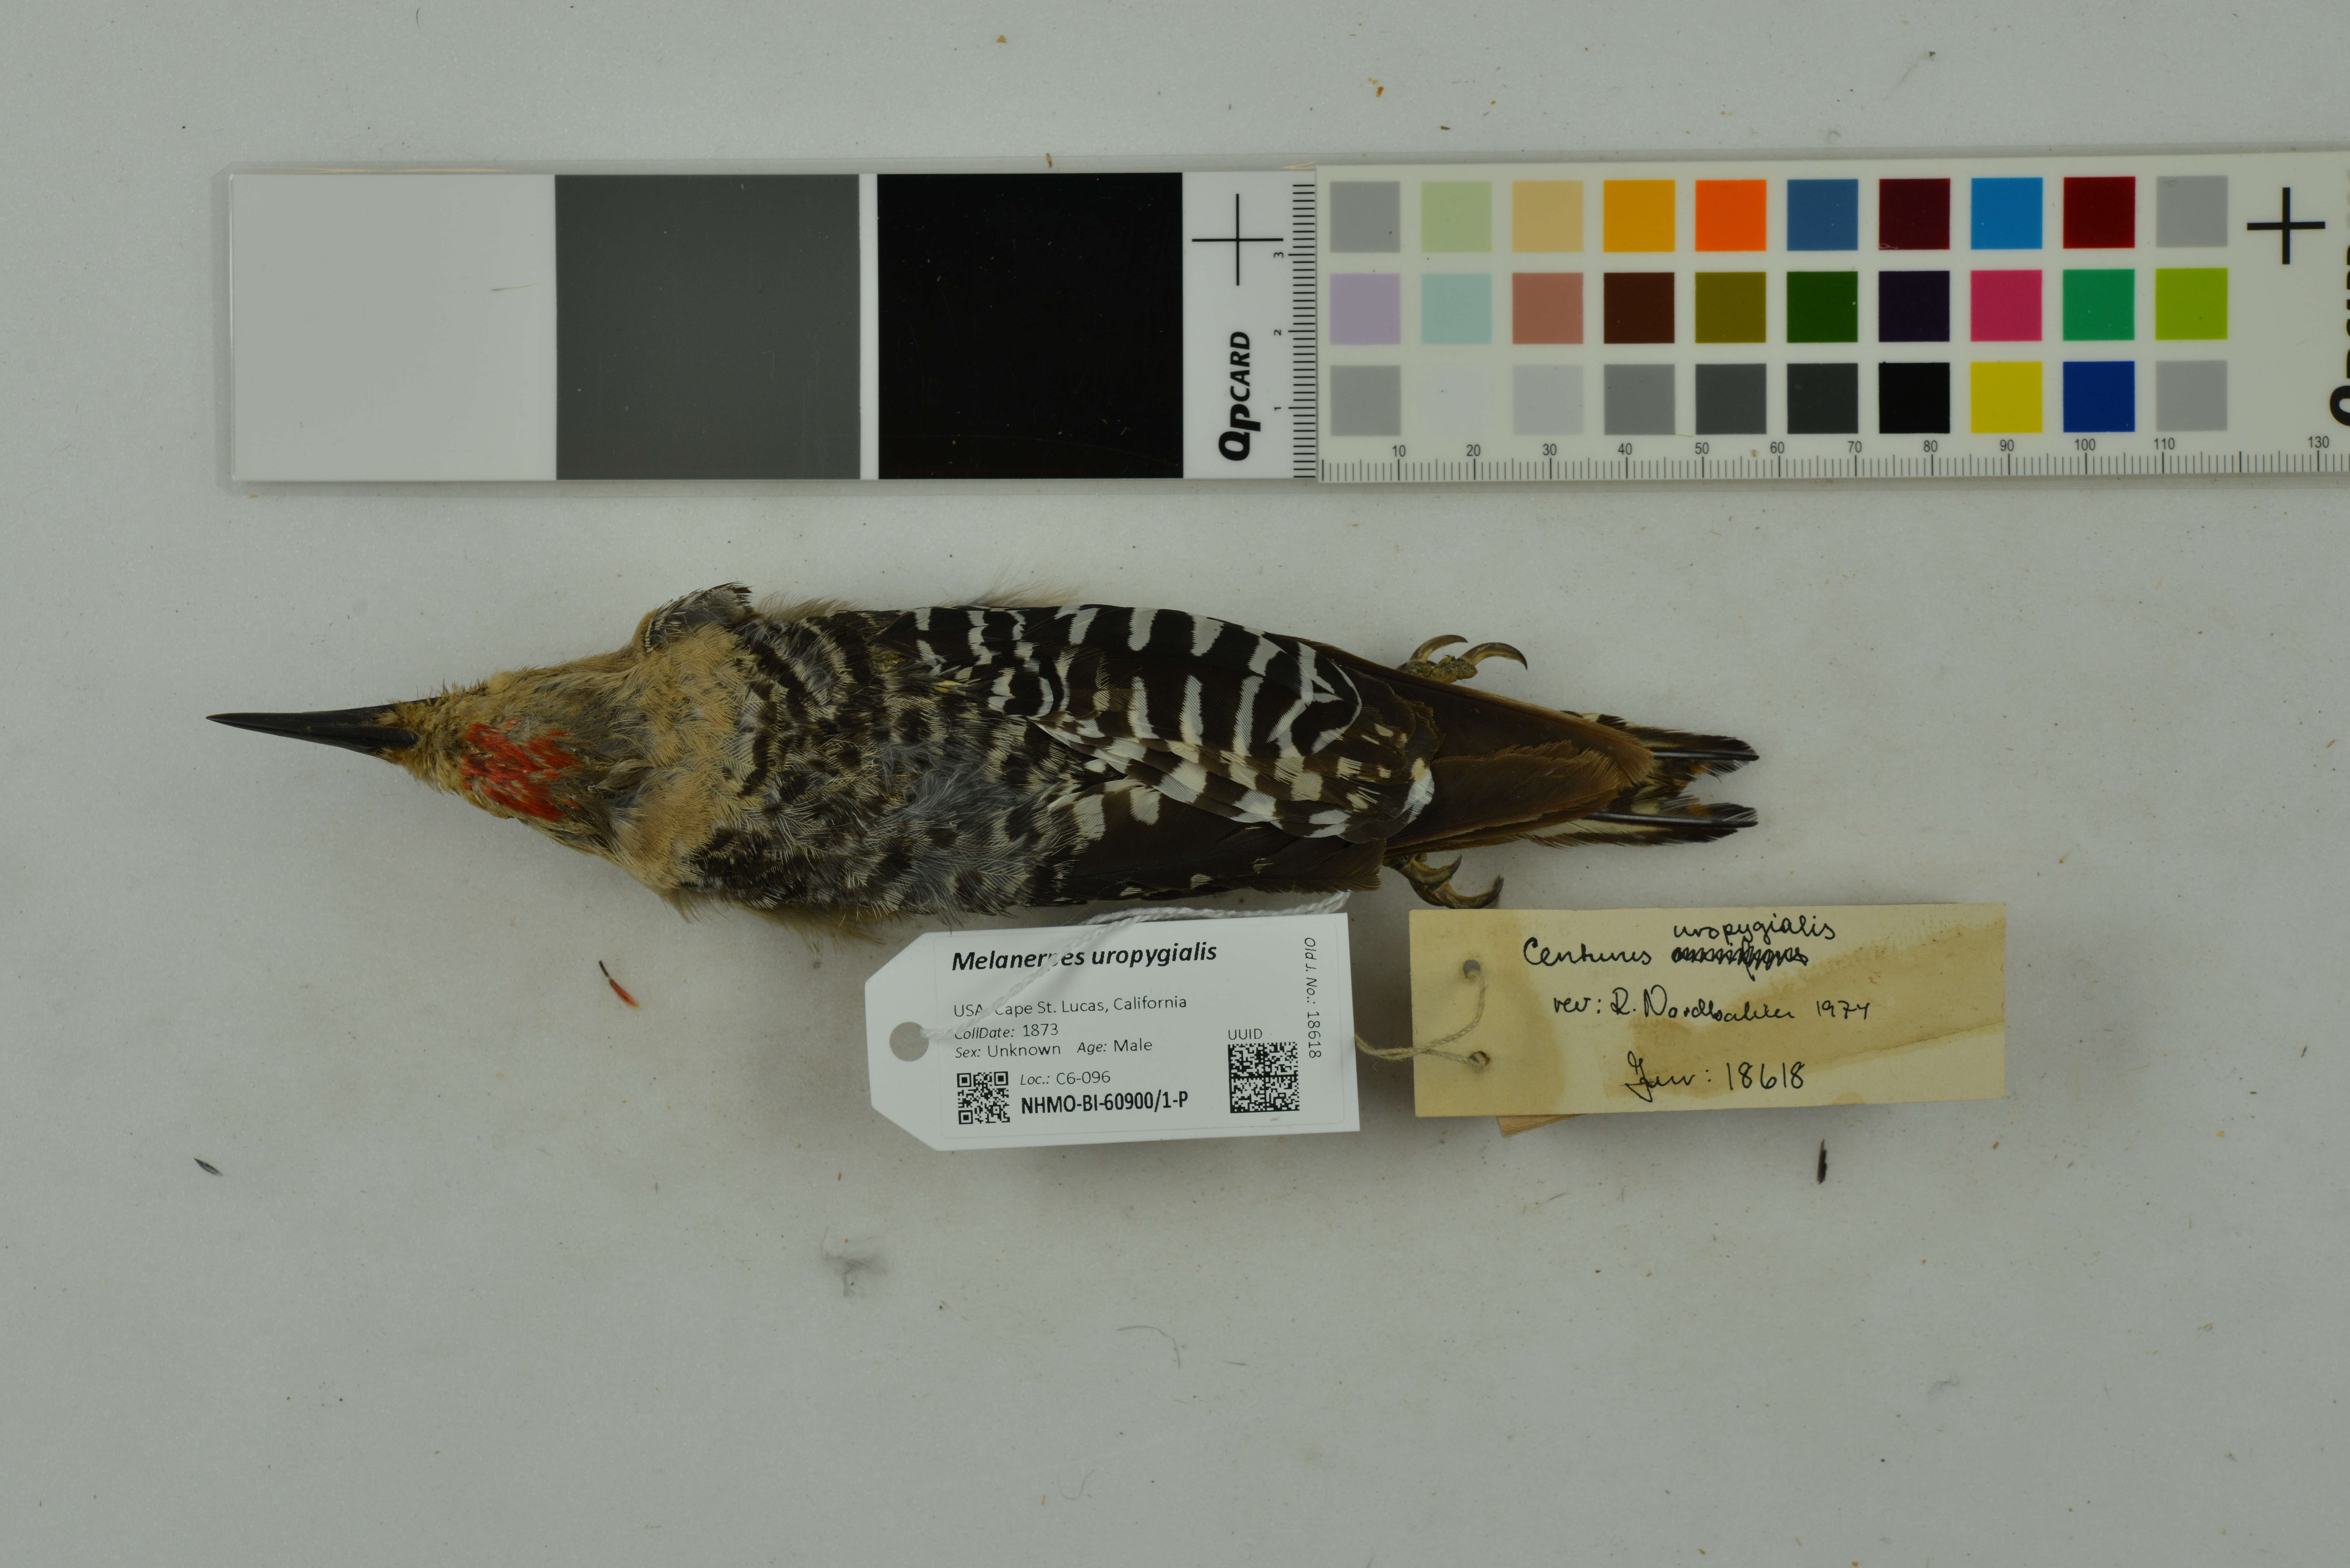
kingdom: Animalia
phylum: Chordata
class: Aves
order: Piciformes
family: Picidae
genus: Melanerpes
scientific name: Melanerpes uropygialis
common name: Gila woodpecker
